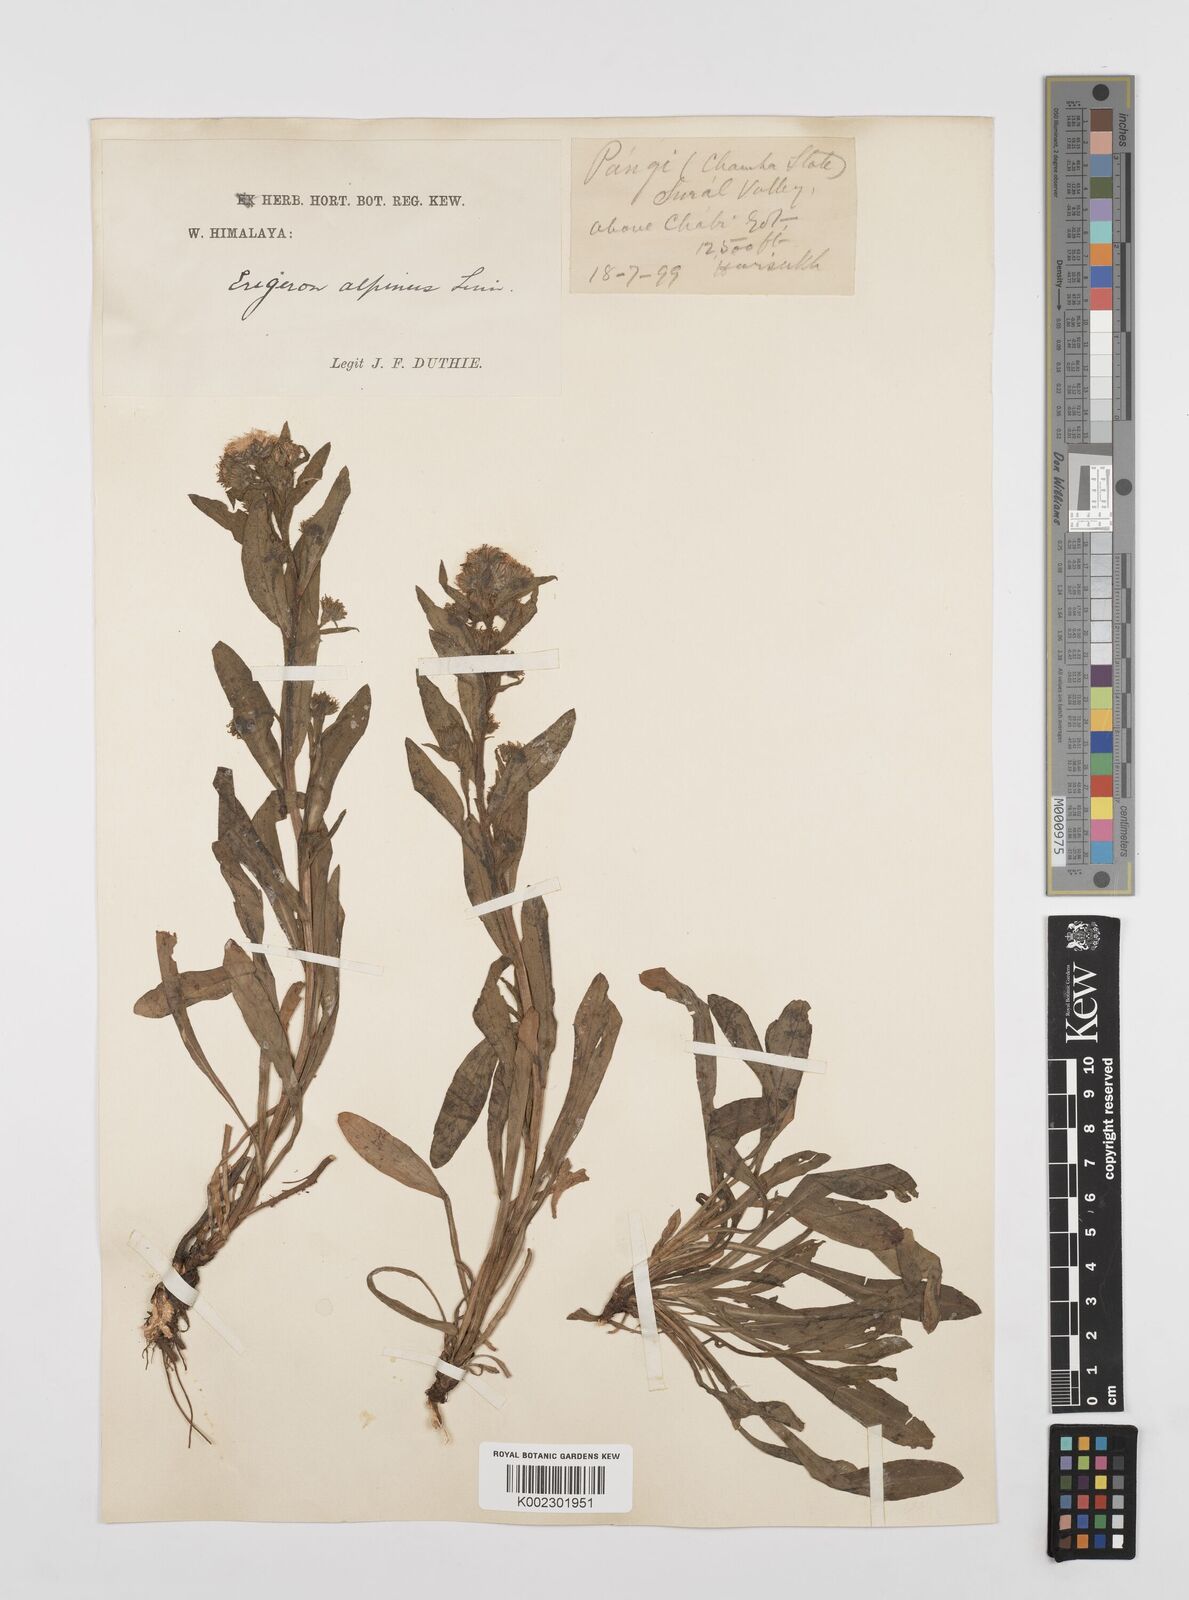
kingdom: Plantae
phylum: Tracheophyta
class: Magnoliopsida
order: Asterales
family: Asteraceae
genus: Erigeron
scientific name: Erigeron alpinus
